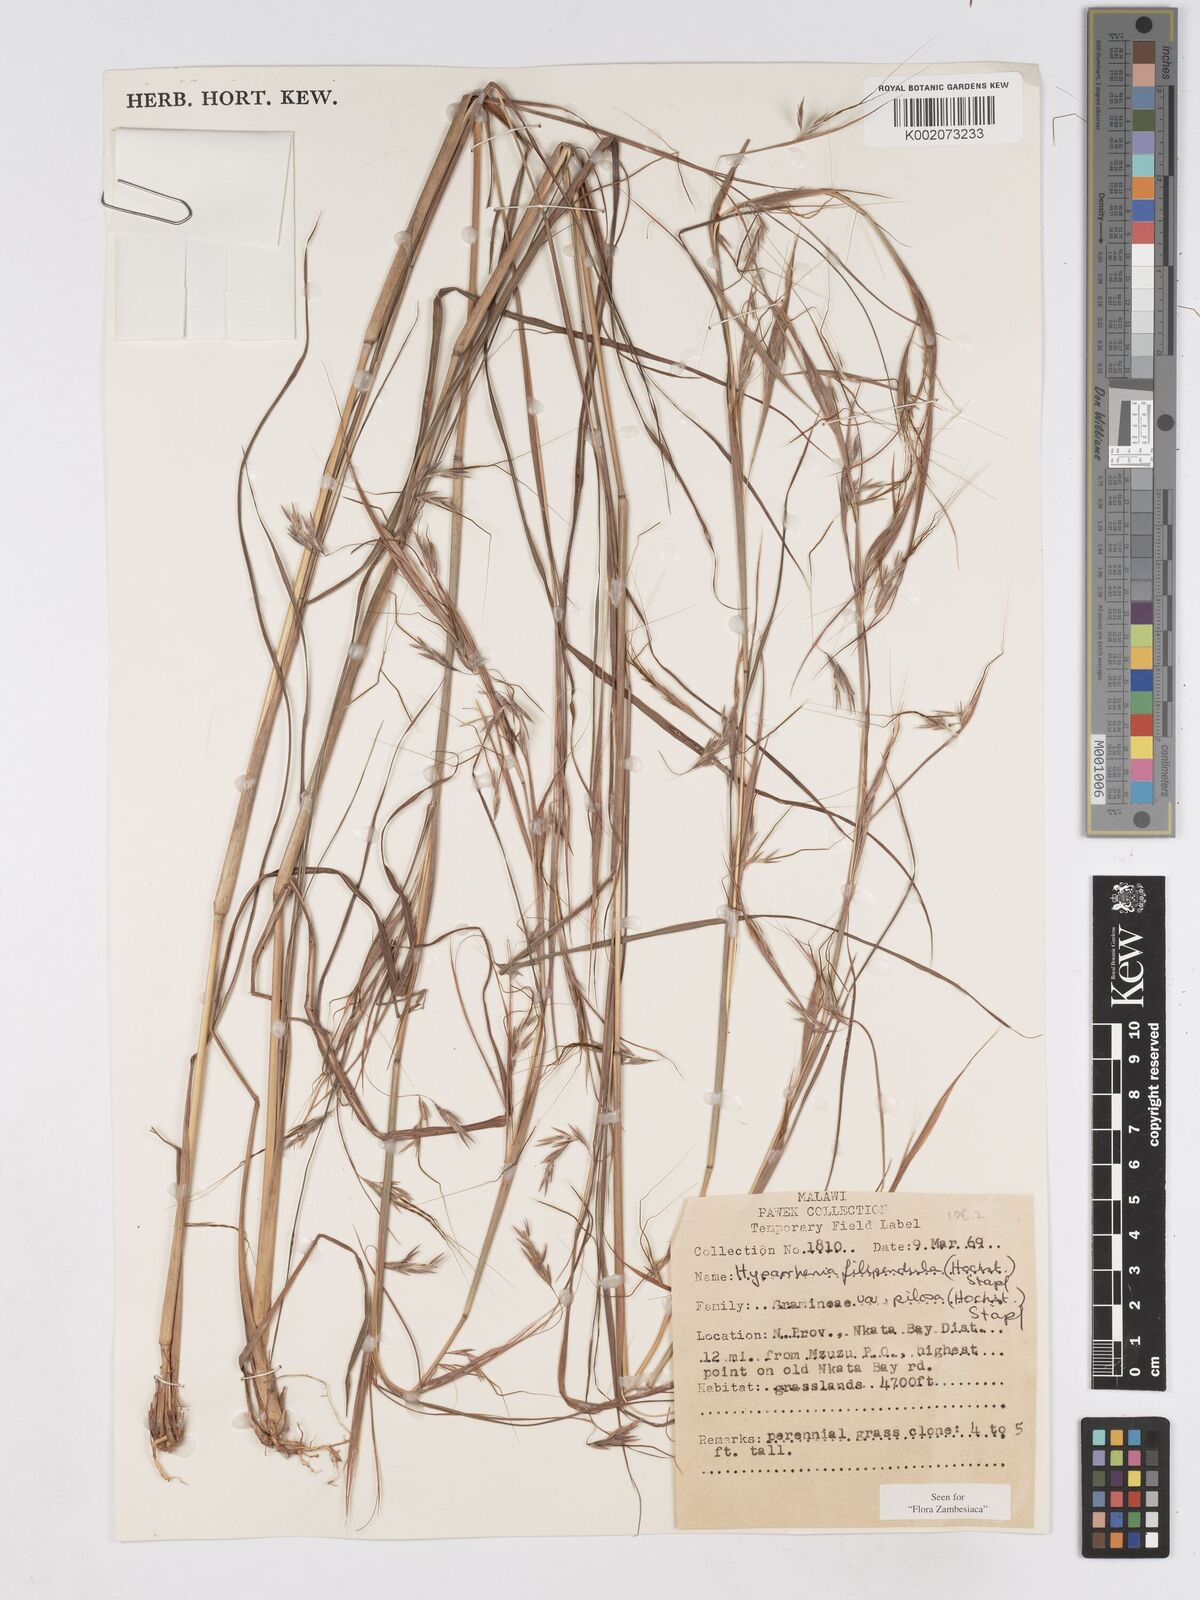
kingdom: Plantae
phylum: Tracheophyta
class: Liliopsida
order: Poales
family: Poaceae
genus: Hyparrhenia
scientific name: Hyparrhenia filipendula
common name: Tambookie grass
